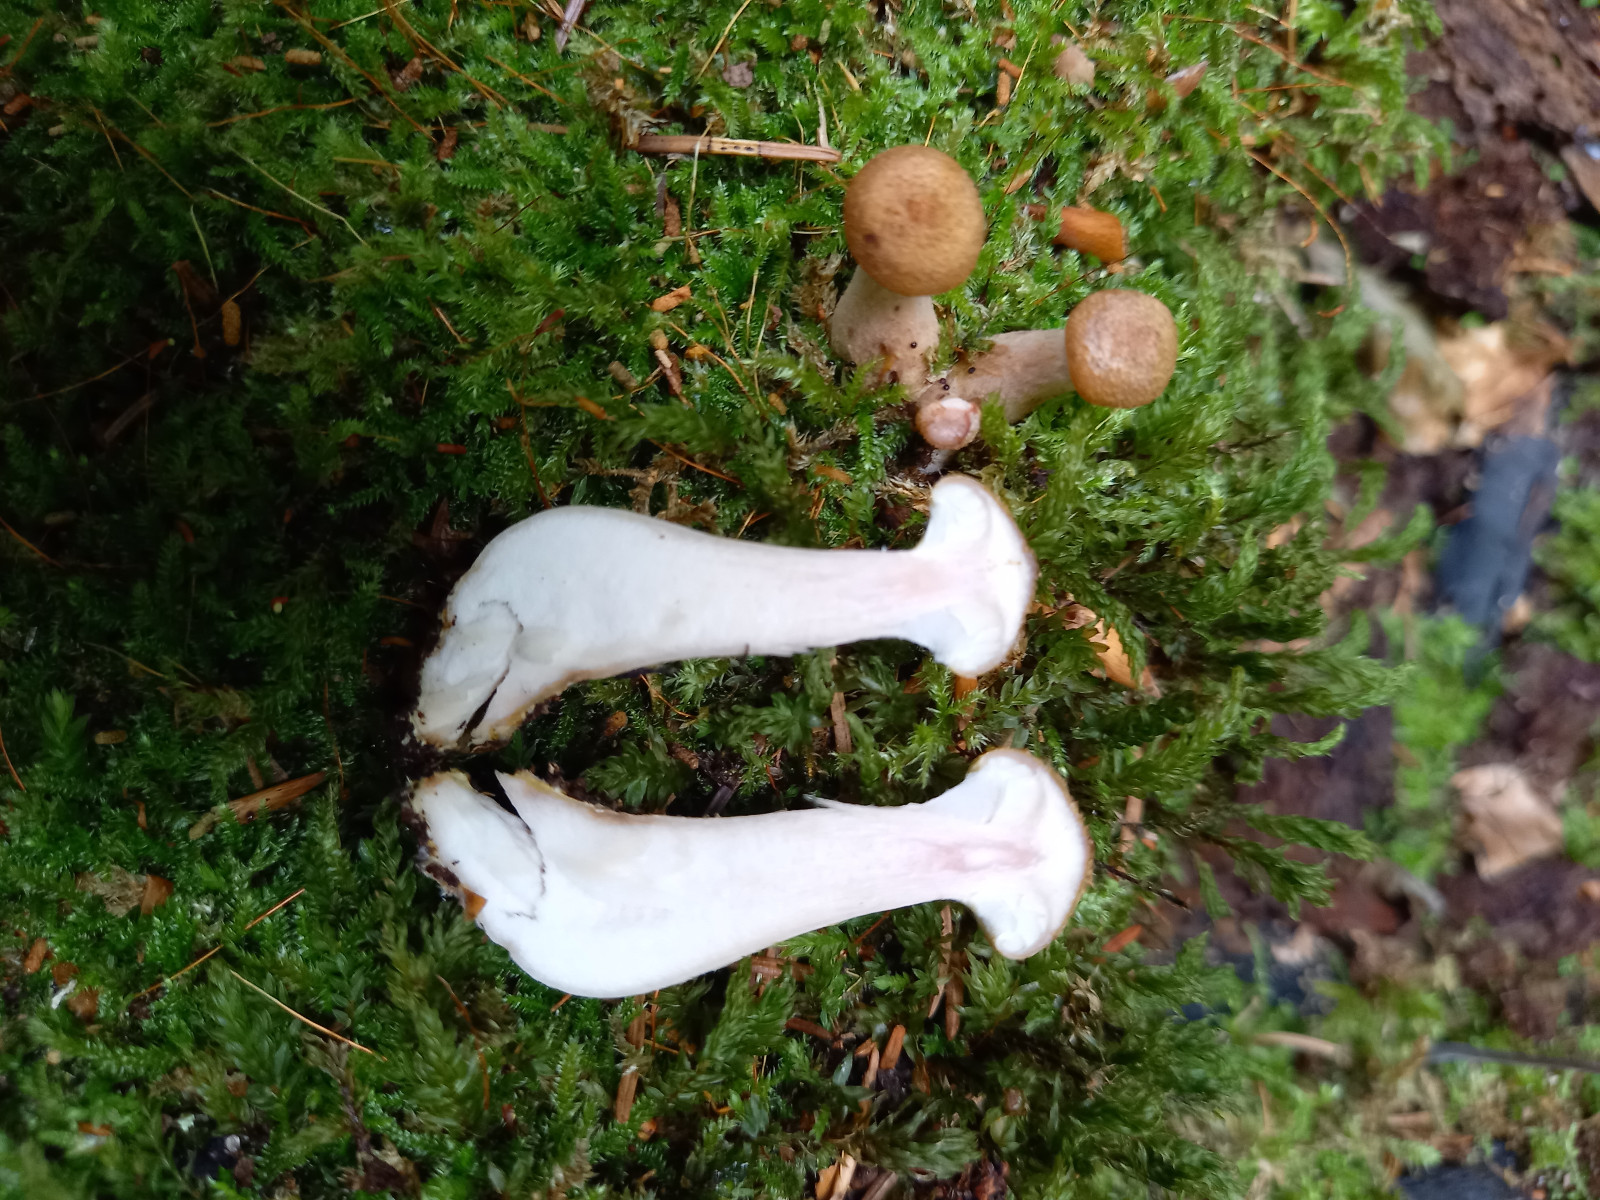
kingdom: Fungi
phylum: Basidiomycota
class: Agaricomycetes
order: Agaricales
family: Physalacriaceae
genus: Armillaria
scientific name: Armillaria lutea
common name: køllestokket honningsvamp
